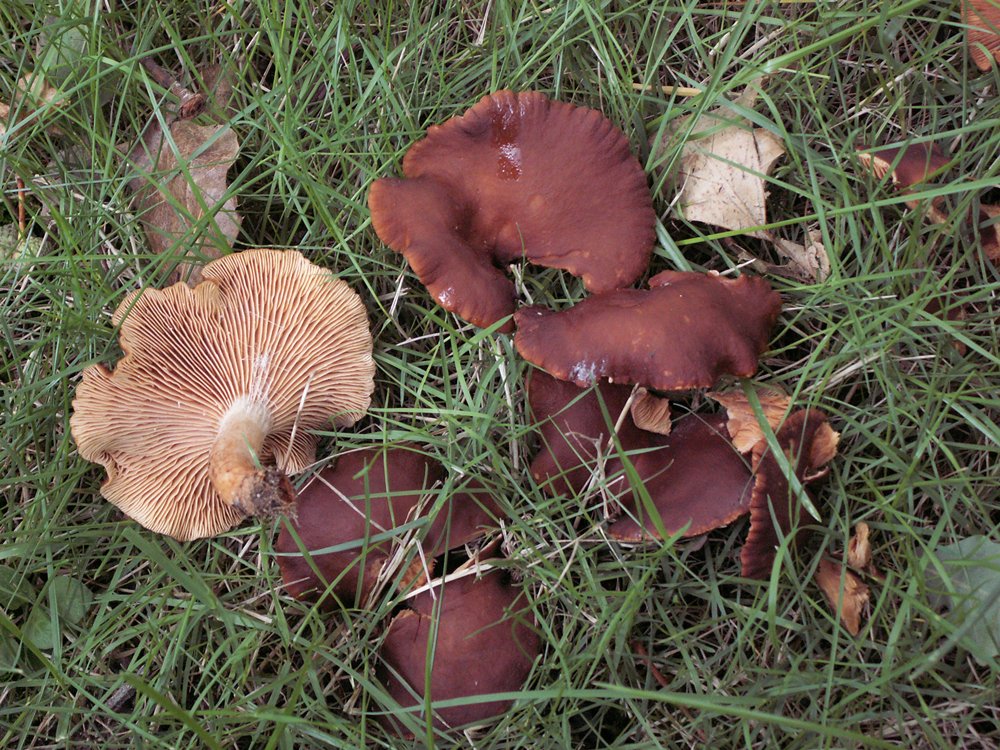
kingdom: Fungi
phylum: Basidiomycota
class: Agaricomycetes
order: Russulales
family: Russulaceae
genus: Lactarius
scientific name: Lactarius serifluus
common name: tæge-mælkehat
